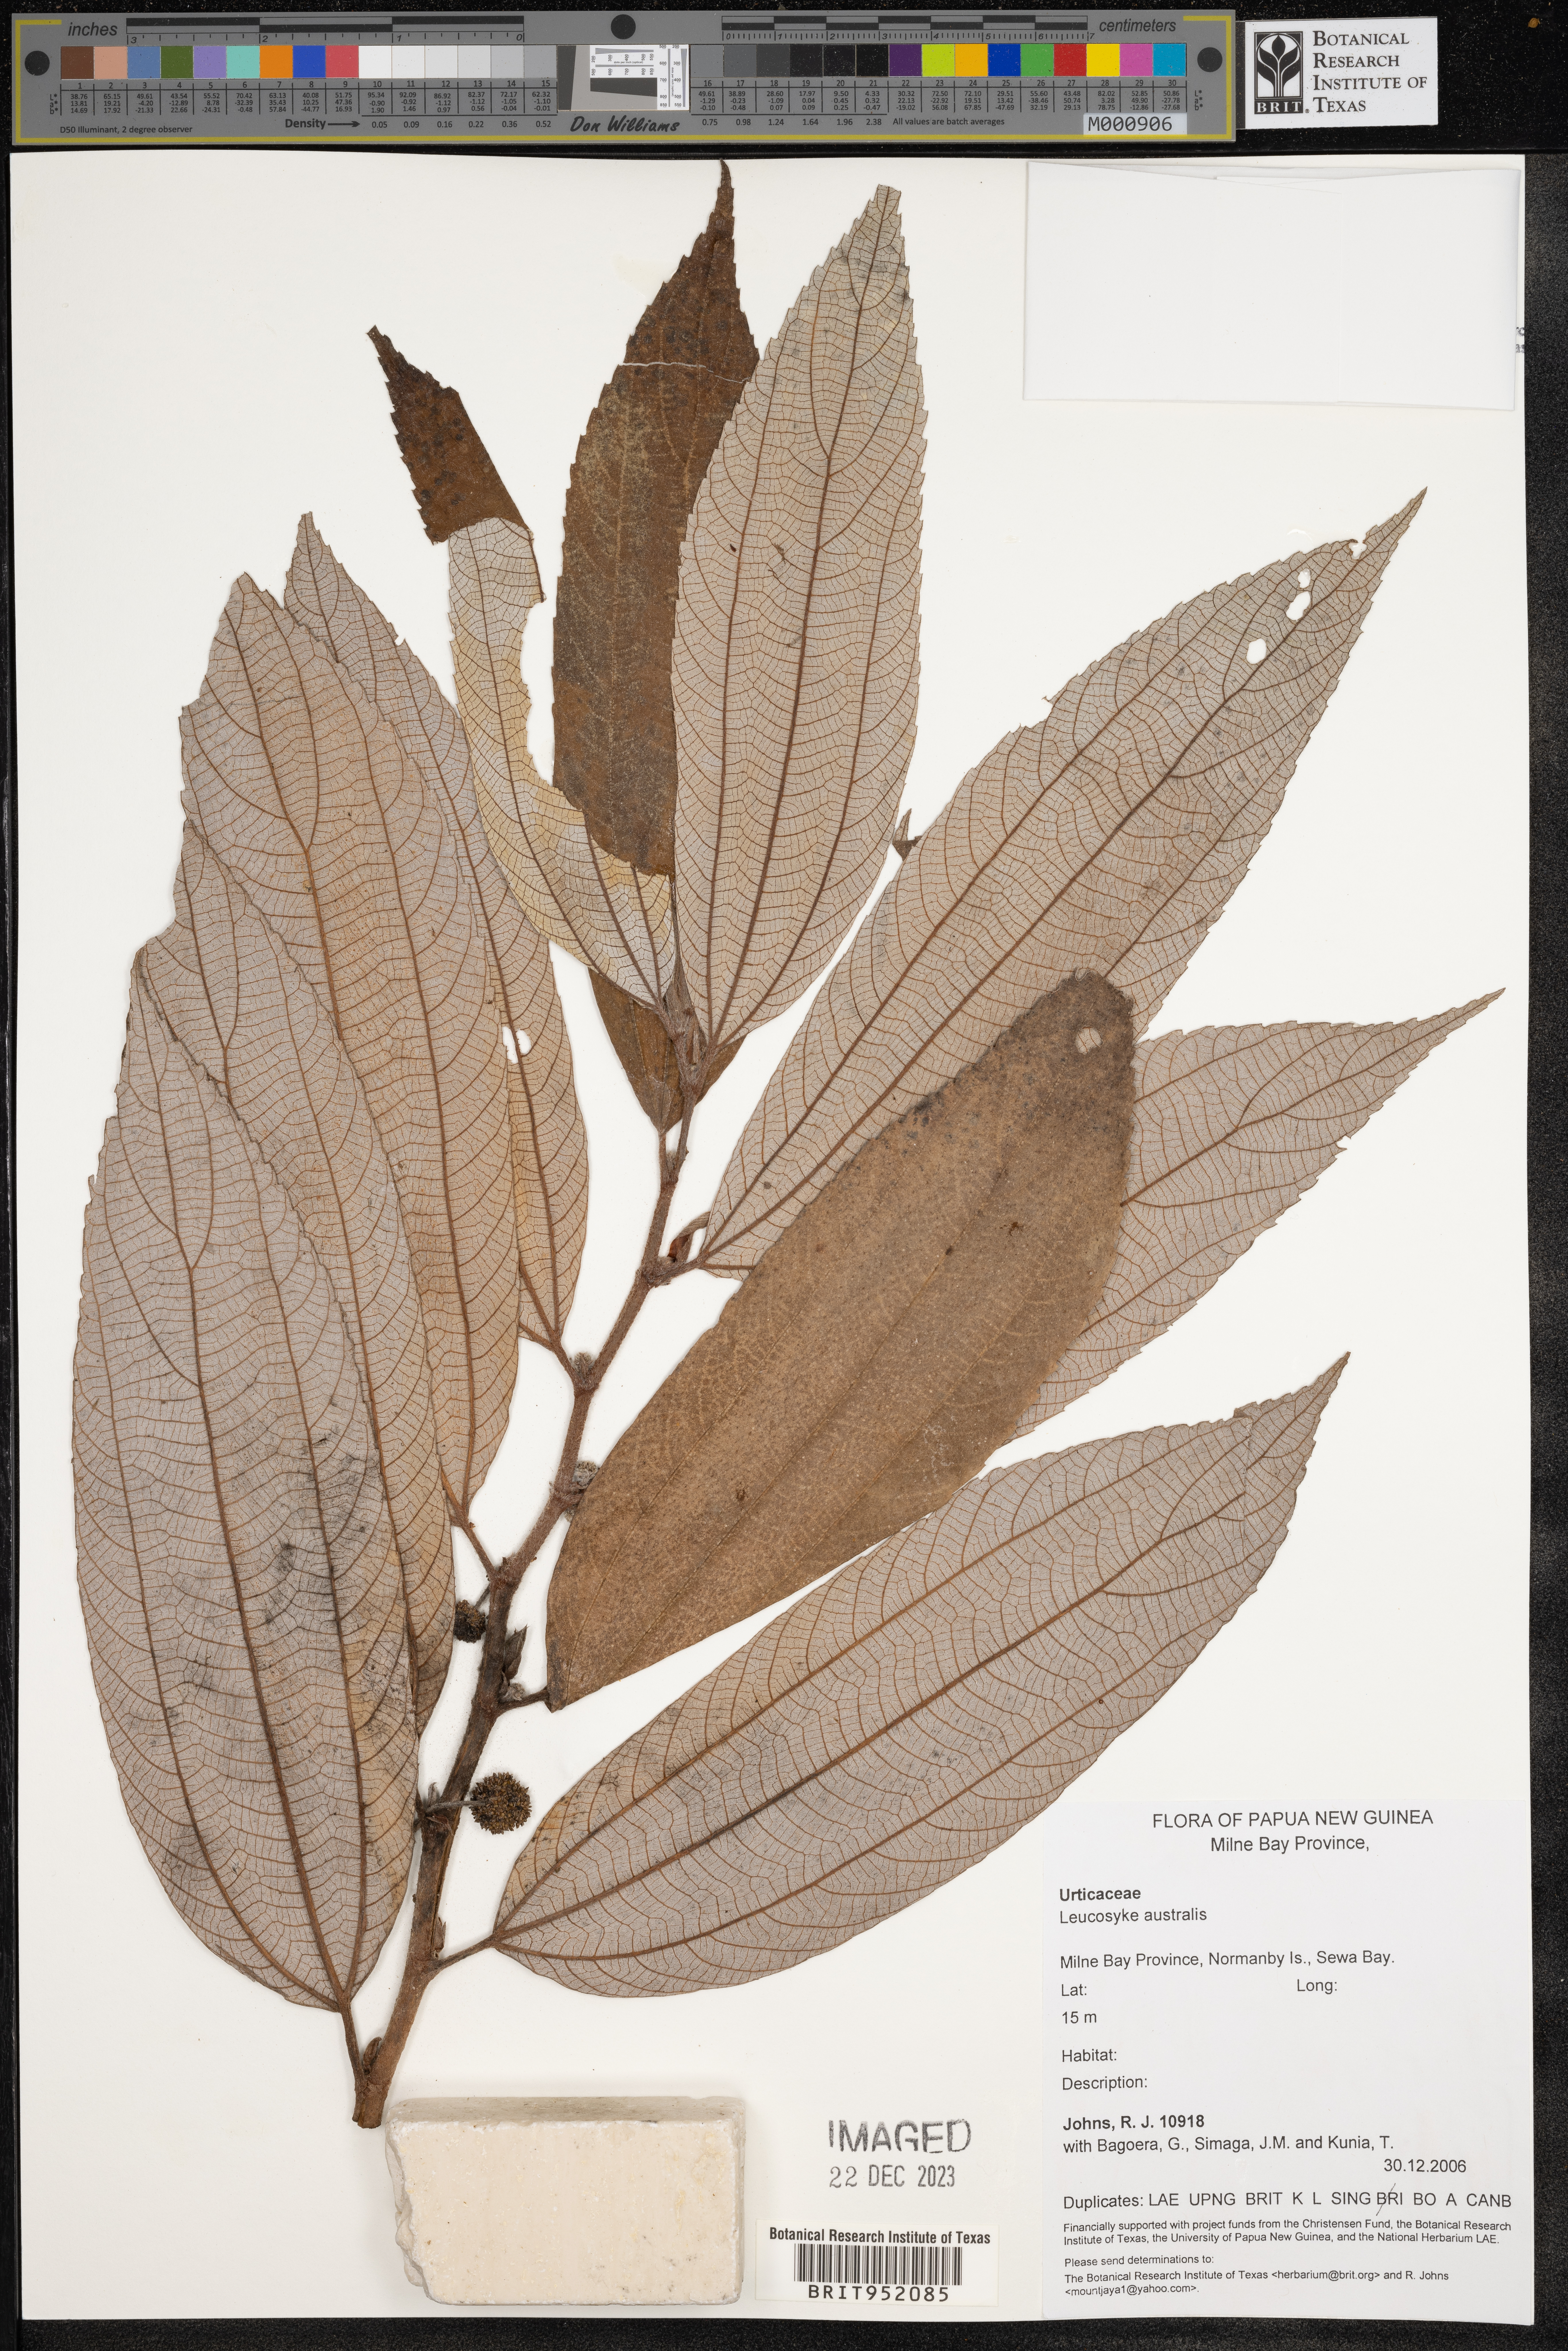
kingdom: Plantae
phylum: Tracheophyta
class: Magnoliopsida
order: Rosales
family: Urticaceae
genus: Leucosyke
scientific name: Leucosyke
